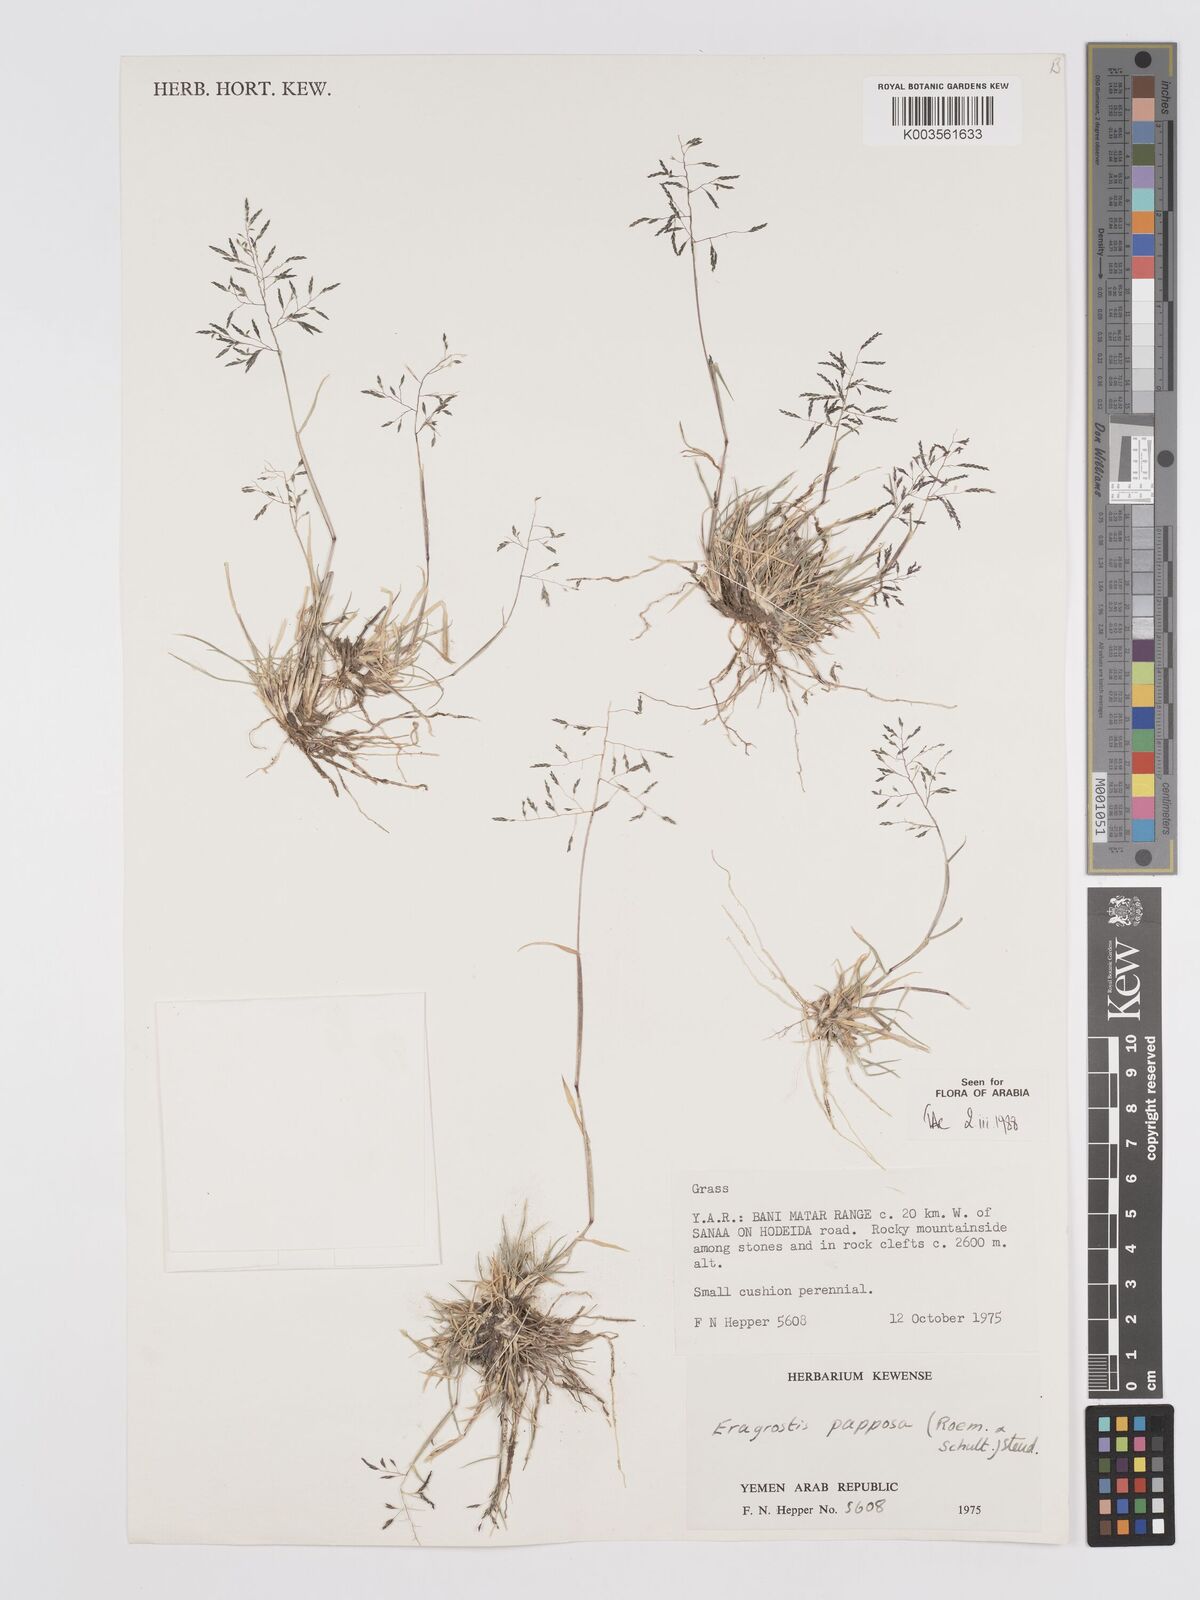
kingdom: Plantae
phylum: Tracheophyta
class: Liliopsida
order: Poales
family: Poaceae
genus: Eragrostis
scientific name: Eragrostis papposa
